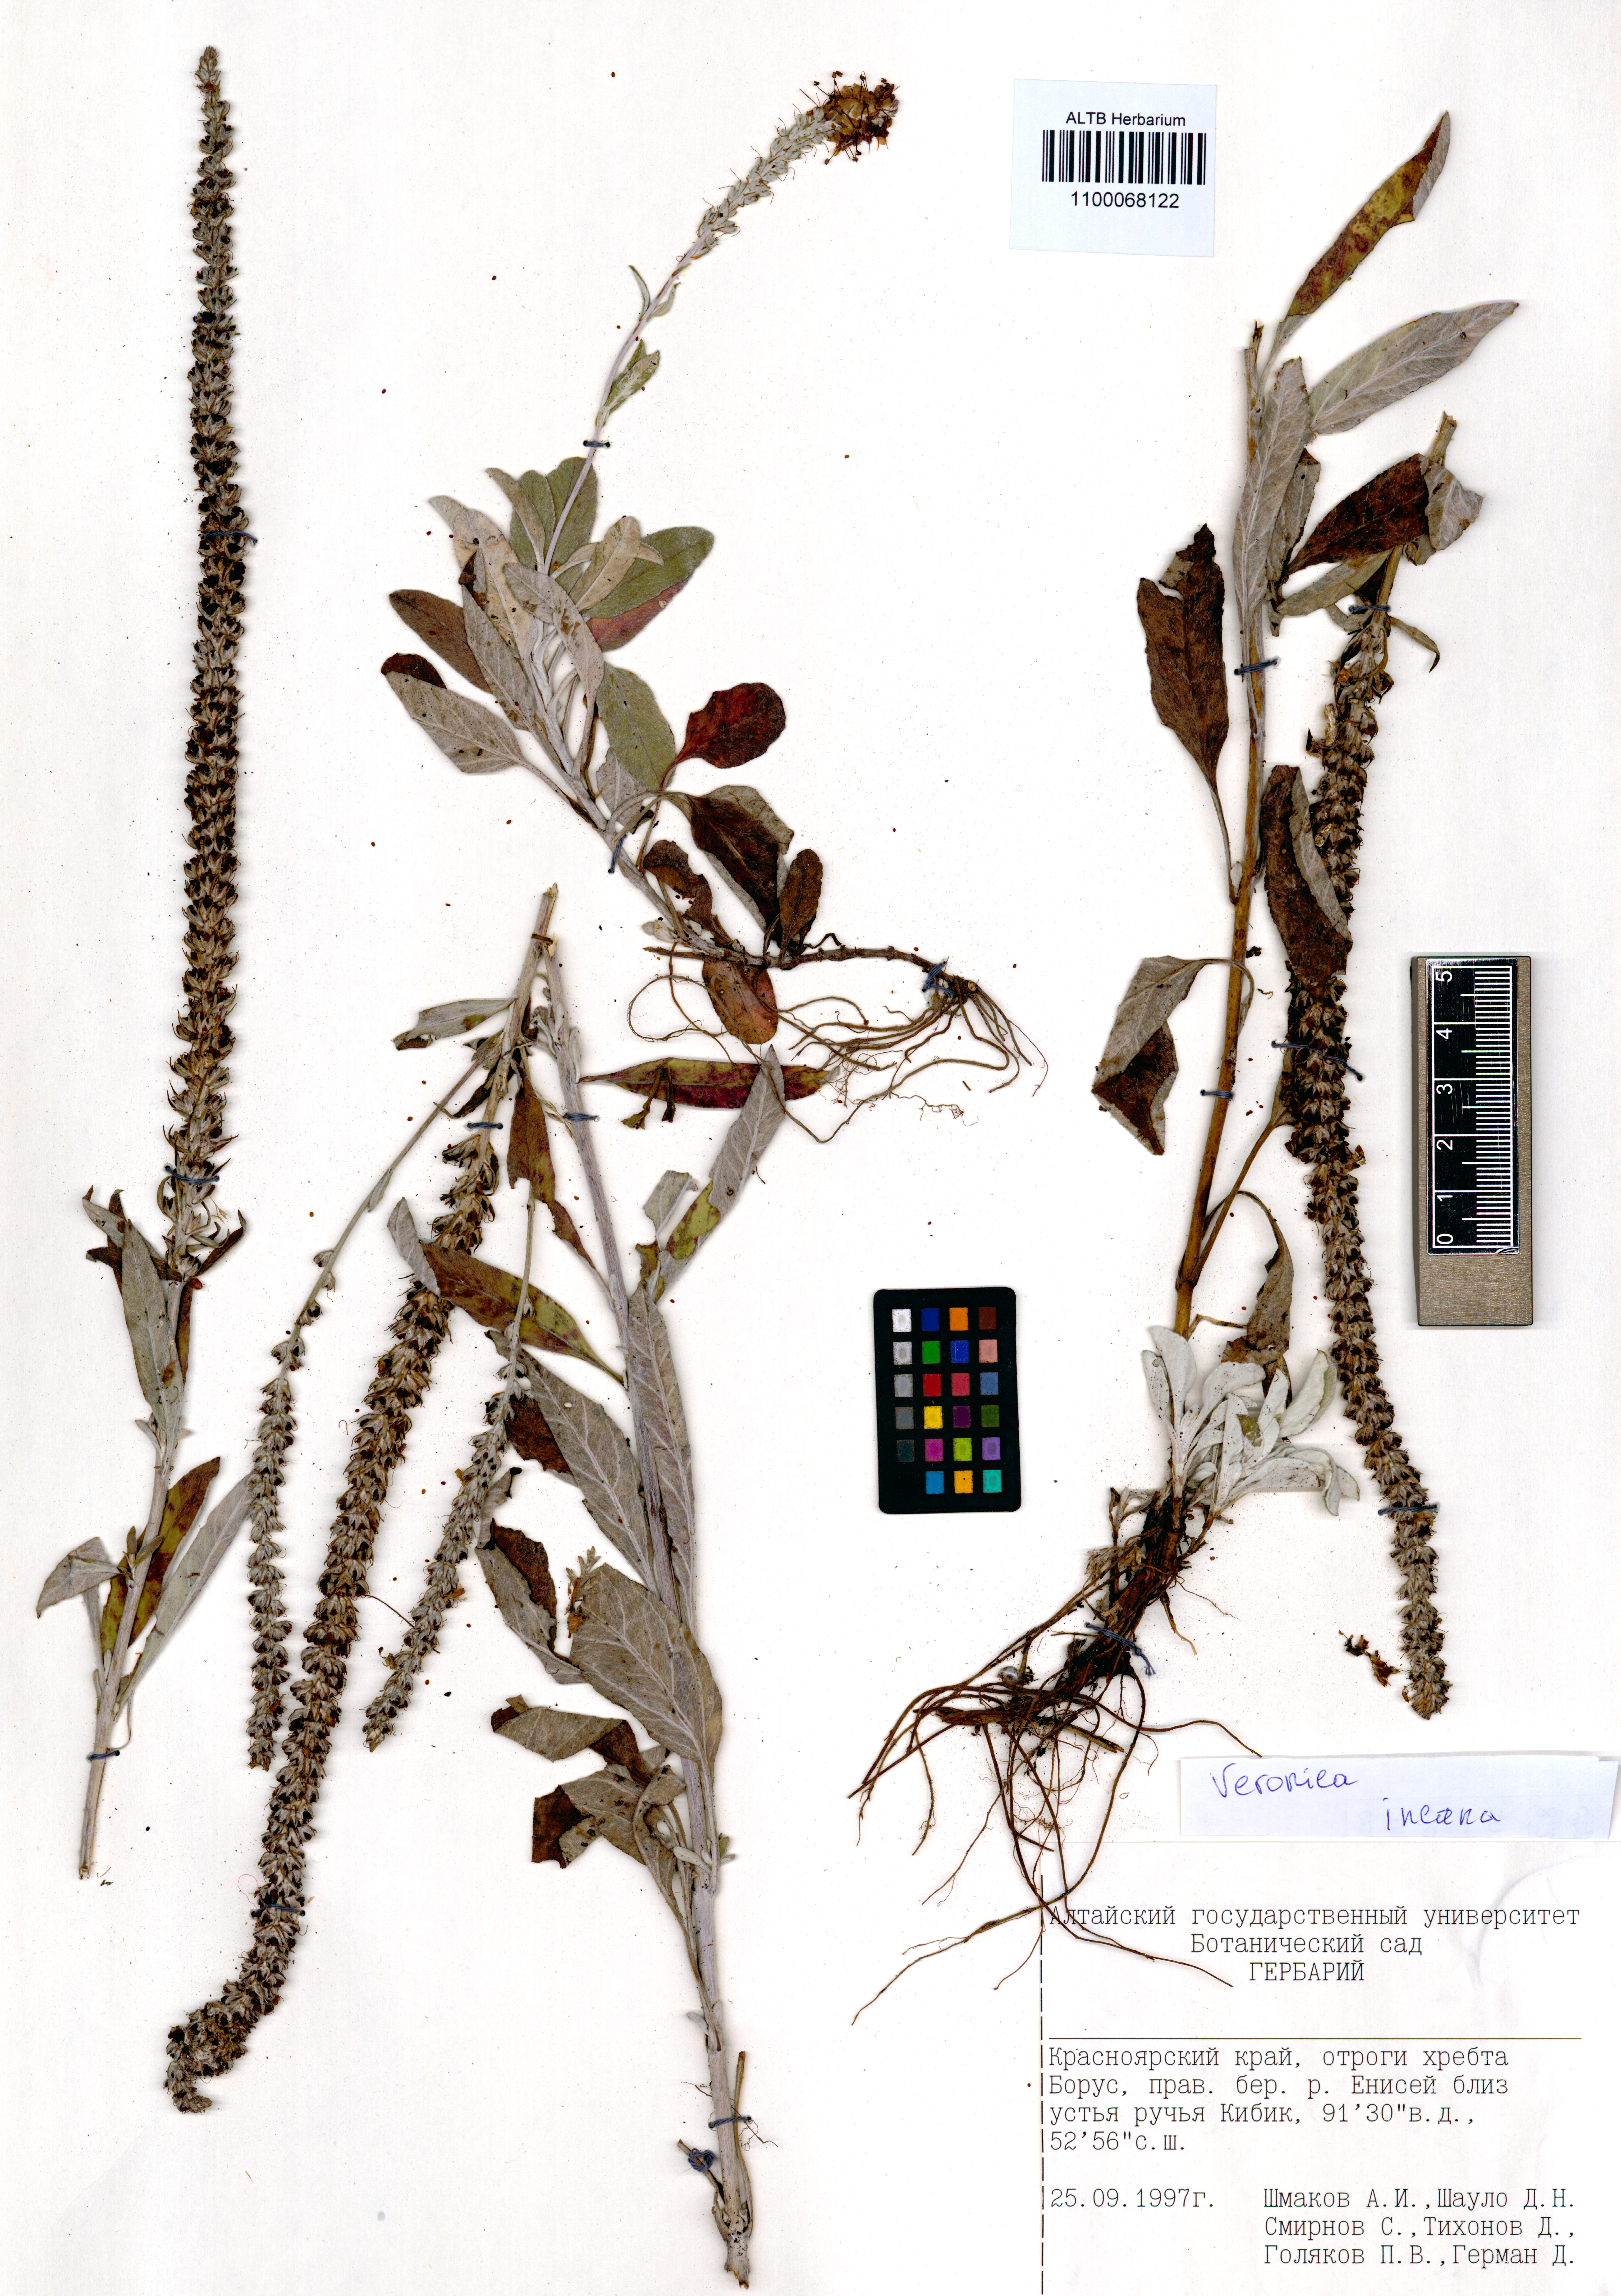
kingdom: Plantae
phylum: Tracheophyta
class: Magnoliopsida
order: Lamiales
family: Plantaginaceae
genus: Veronica
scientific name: Veronica incana
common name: Silver speedwell
